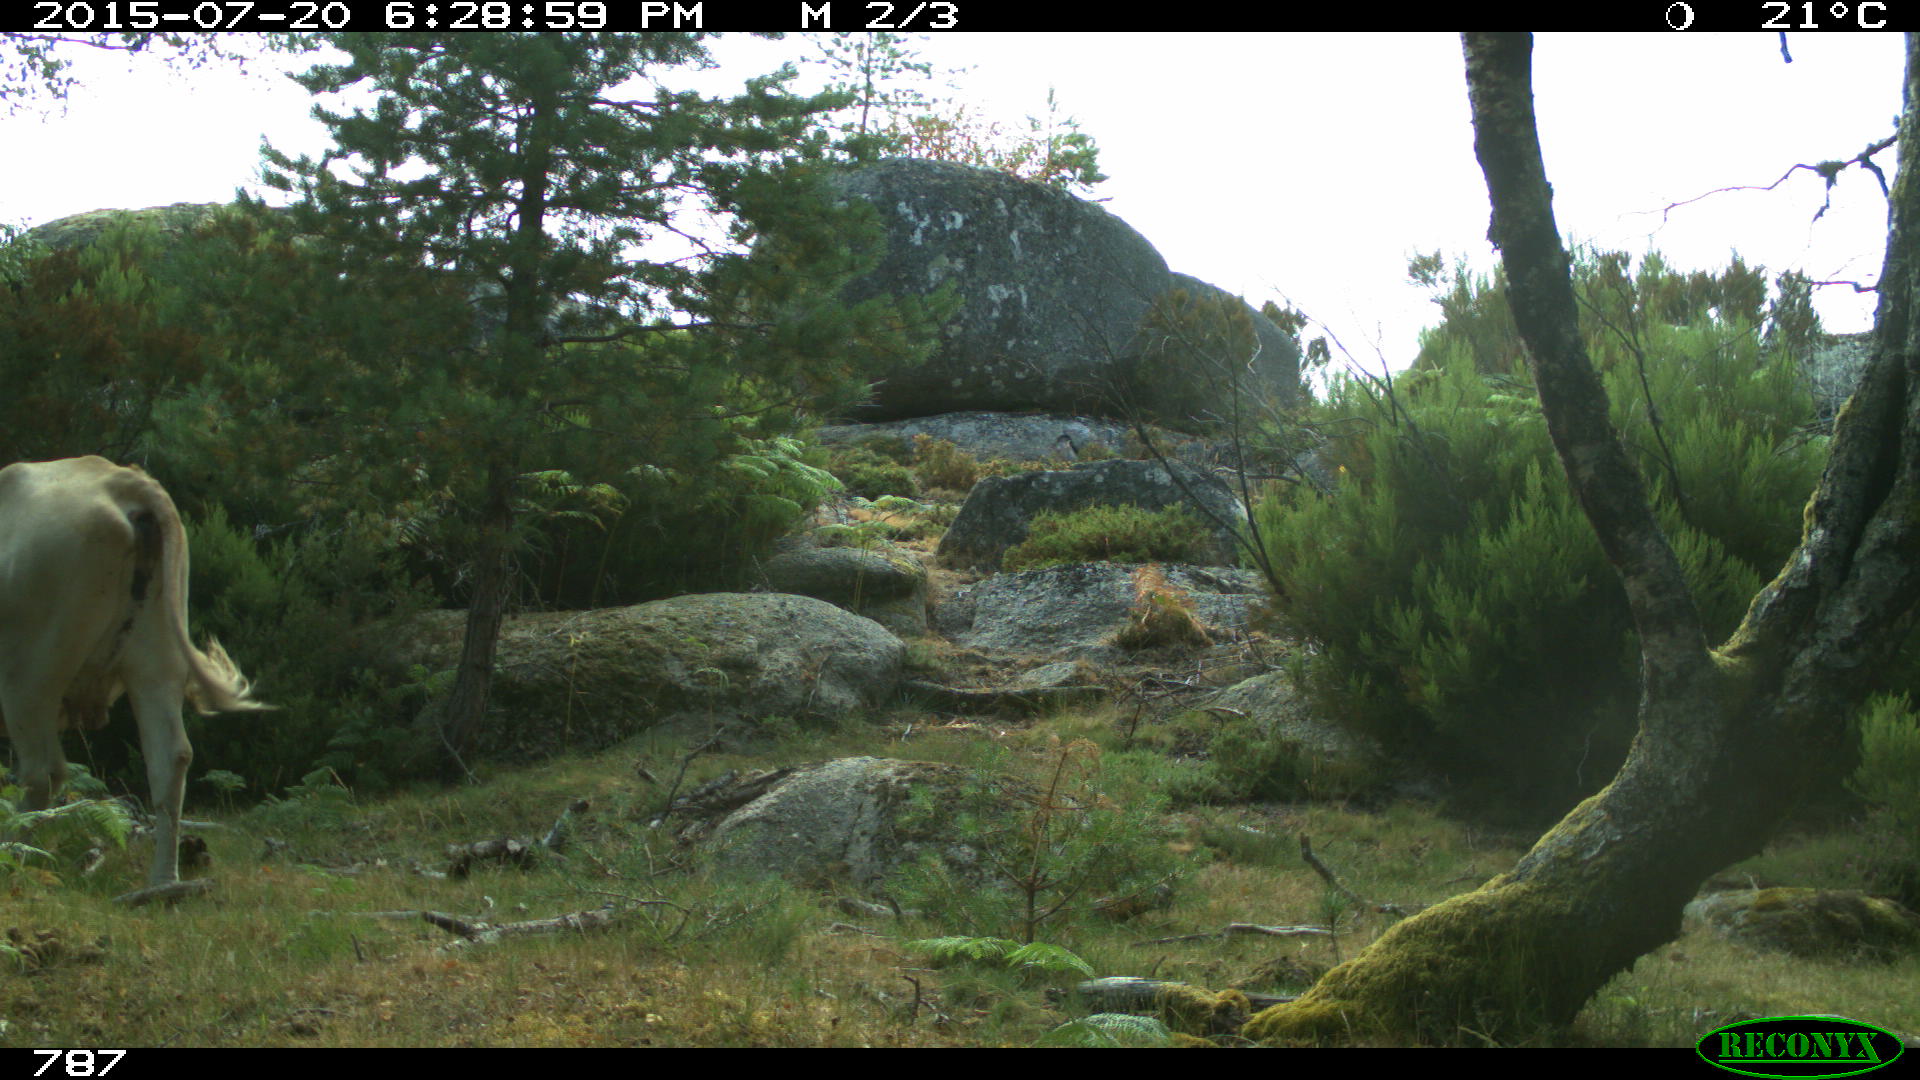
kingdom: Animalia
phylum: Chordata
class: Mammalia
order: Artiodactyla
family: Bovidae
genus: Bos
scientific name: Bos taurus
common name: Domesticated cattle
